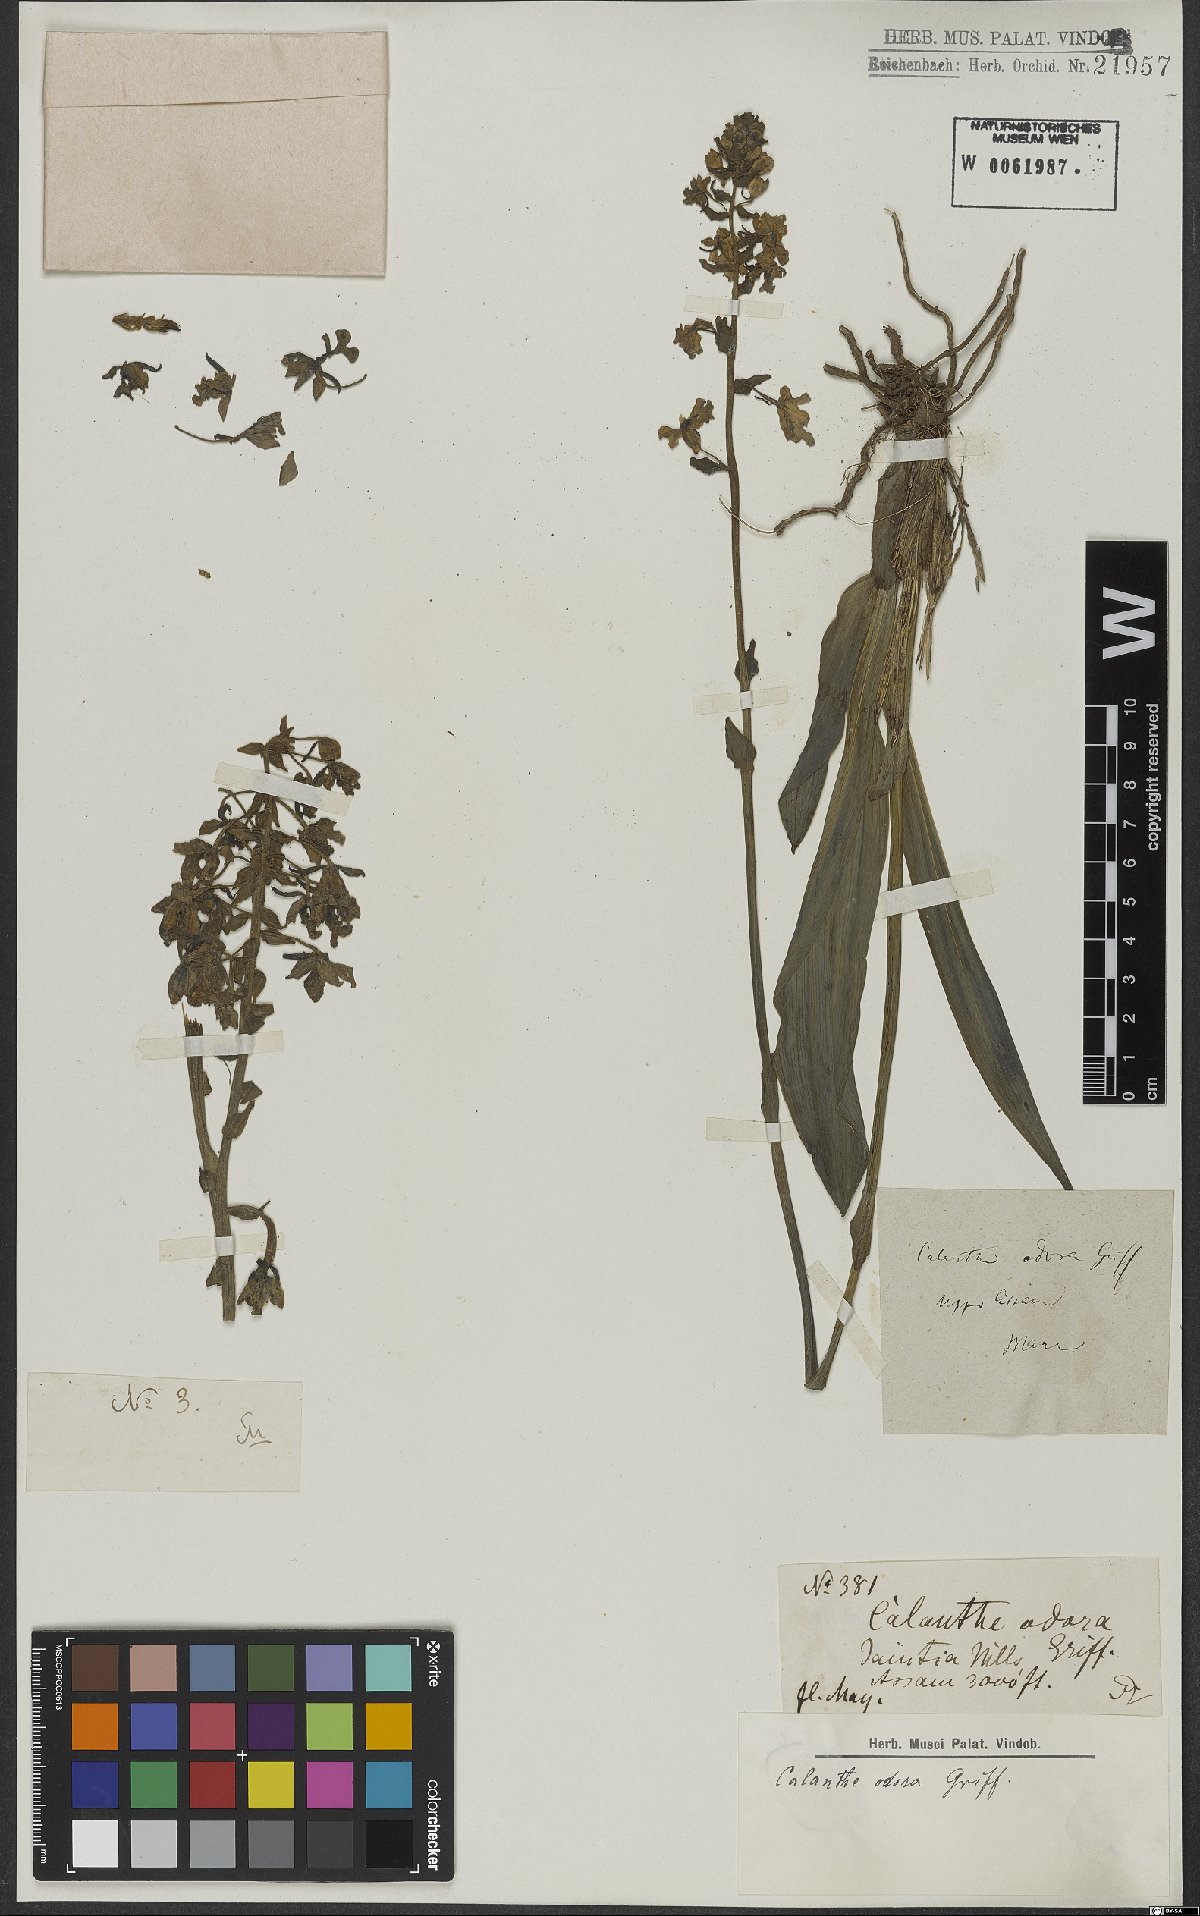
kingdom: Plantae
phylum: Tracheophyta
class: Liliopsida
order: Asparagales
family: Orchidaceae
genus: Calanthe
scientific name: Calanthe odora
